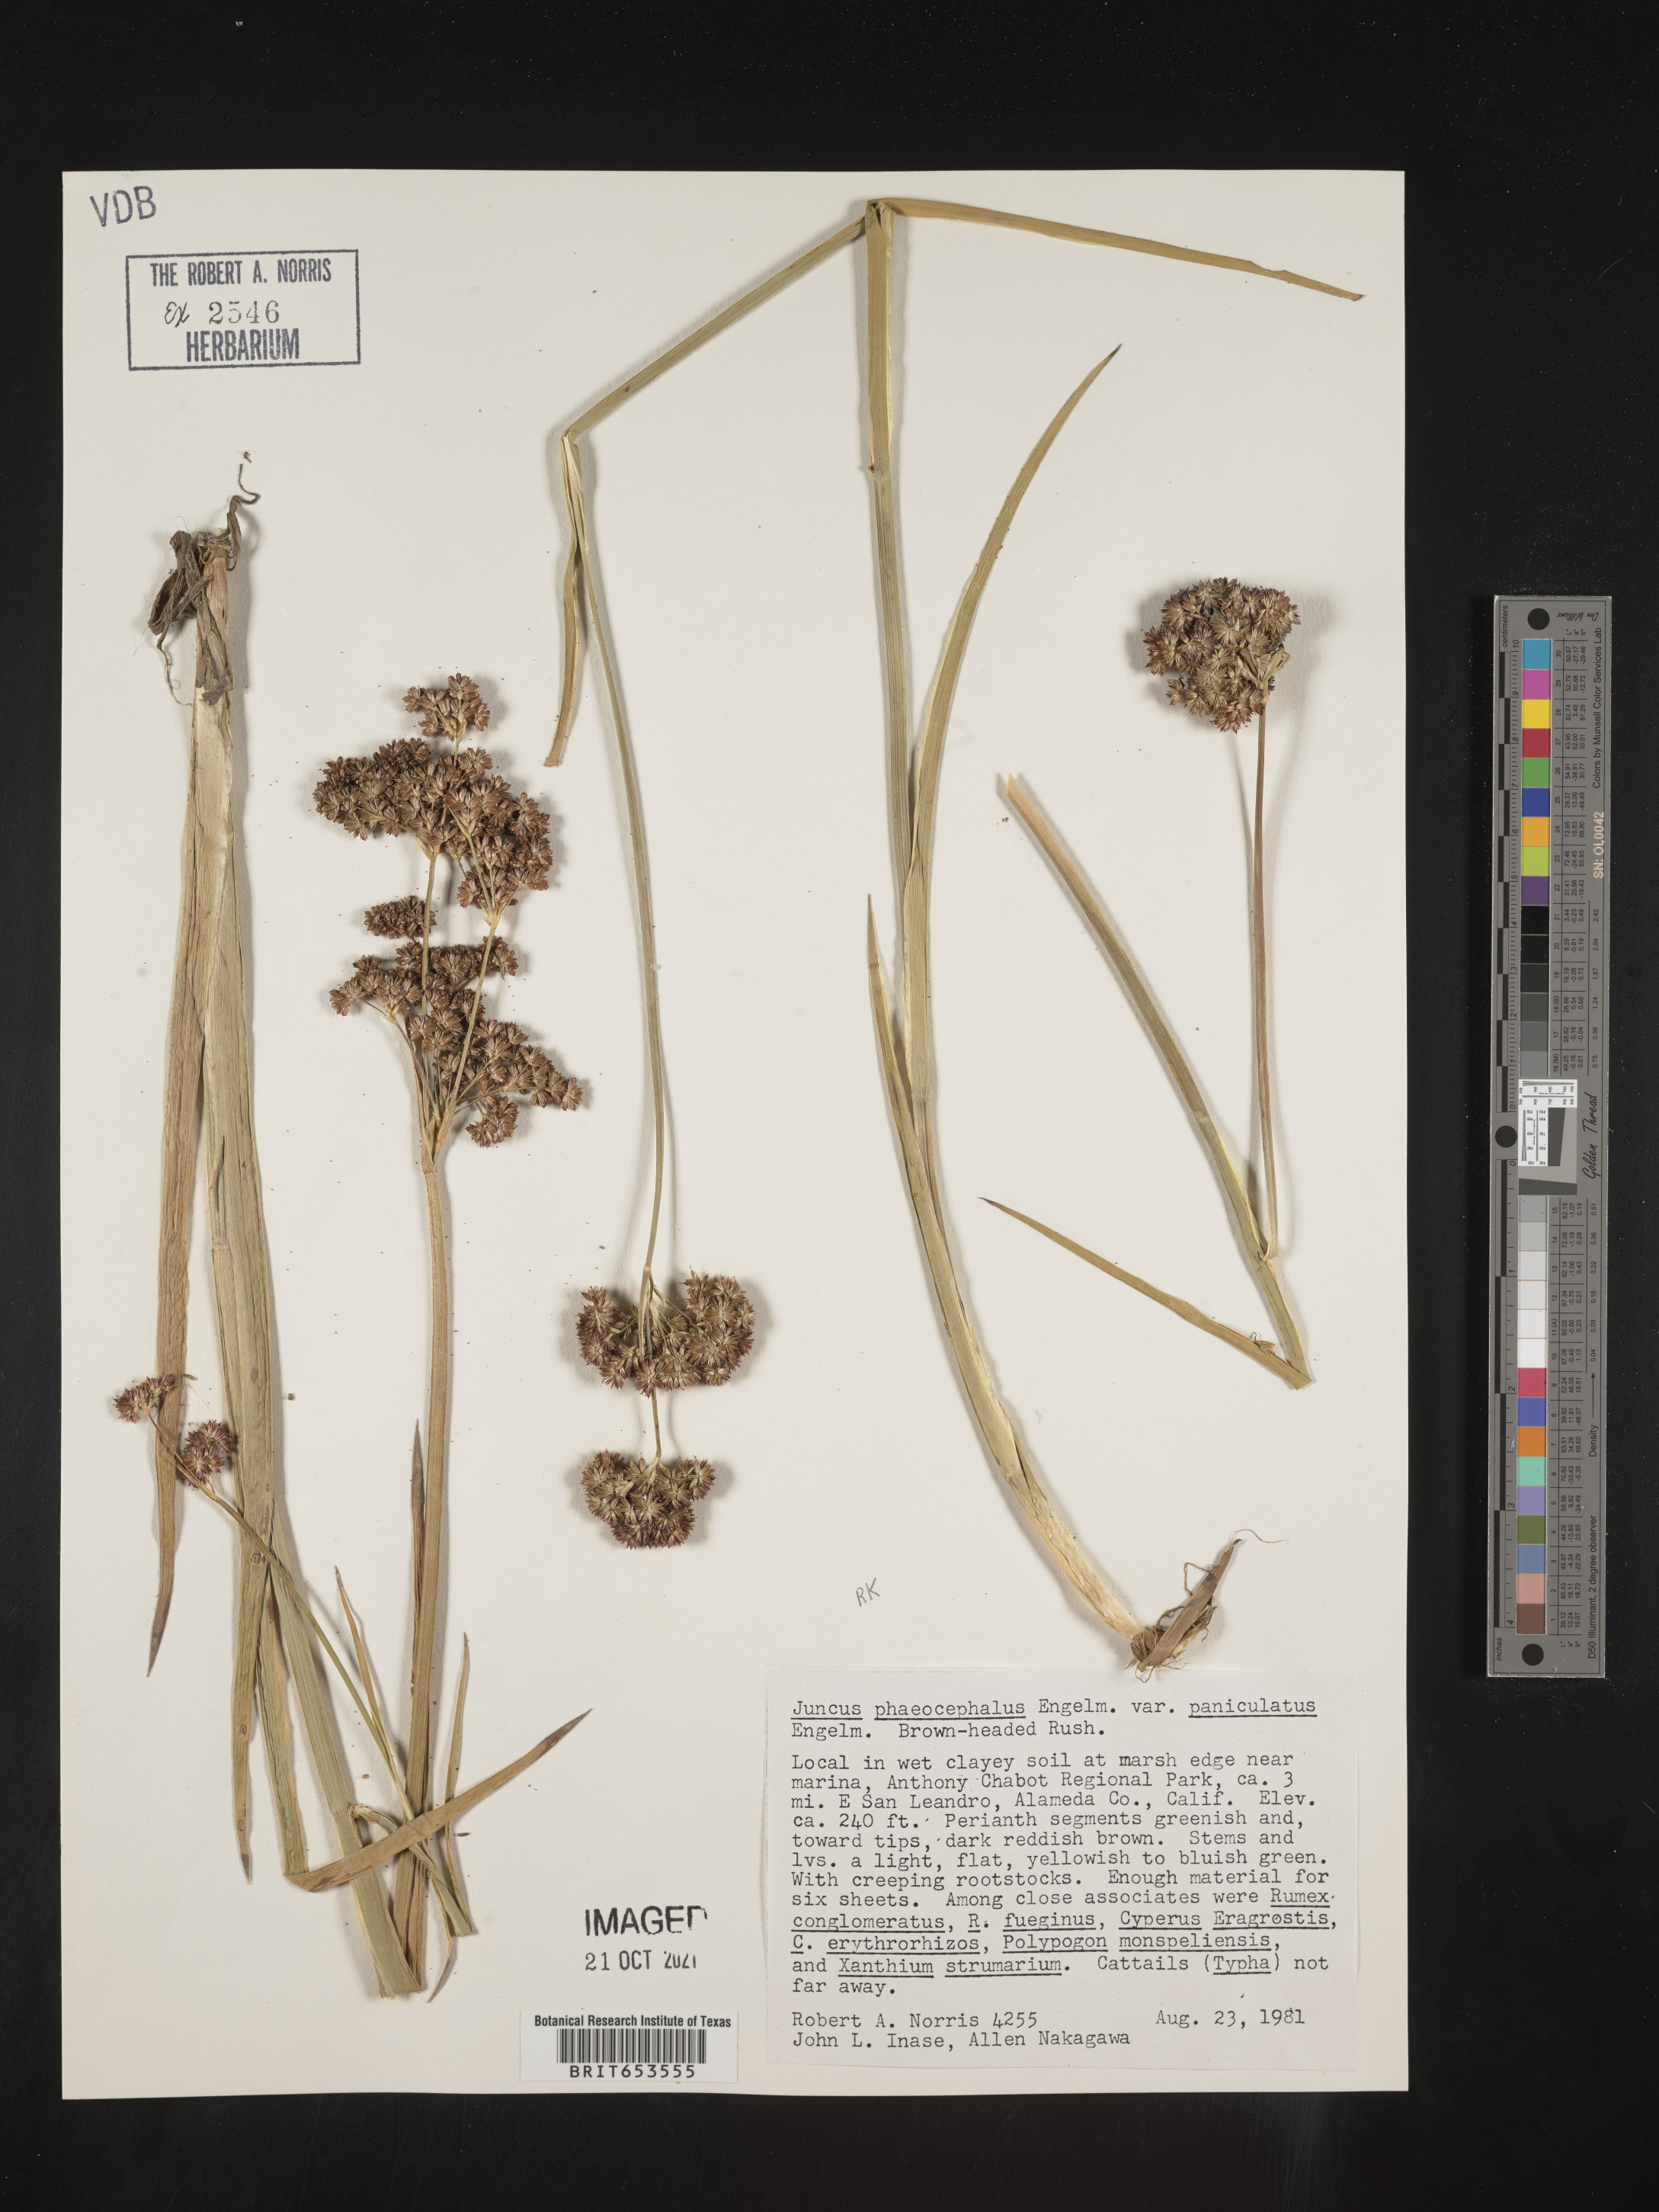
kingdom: Plantae
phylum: Tracheophyta
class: Liliopsida
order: Poales
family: Juncaceae
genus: Juncus
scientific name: Juncus phaeocephalus
